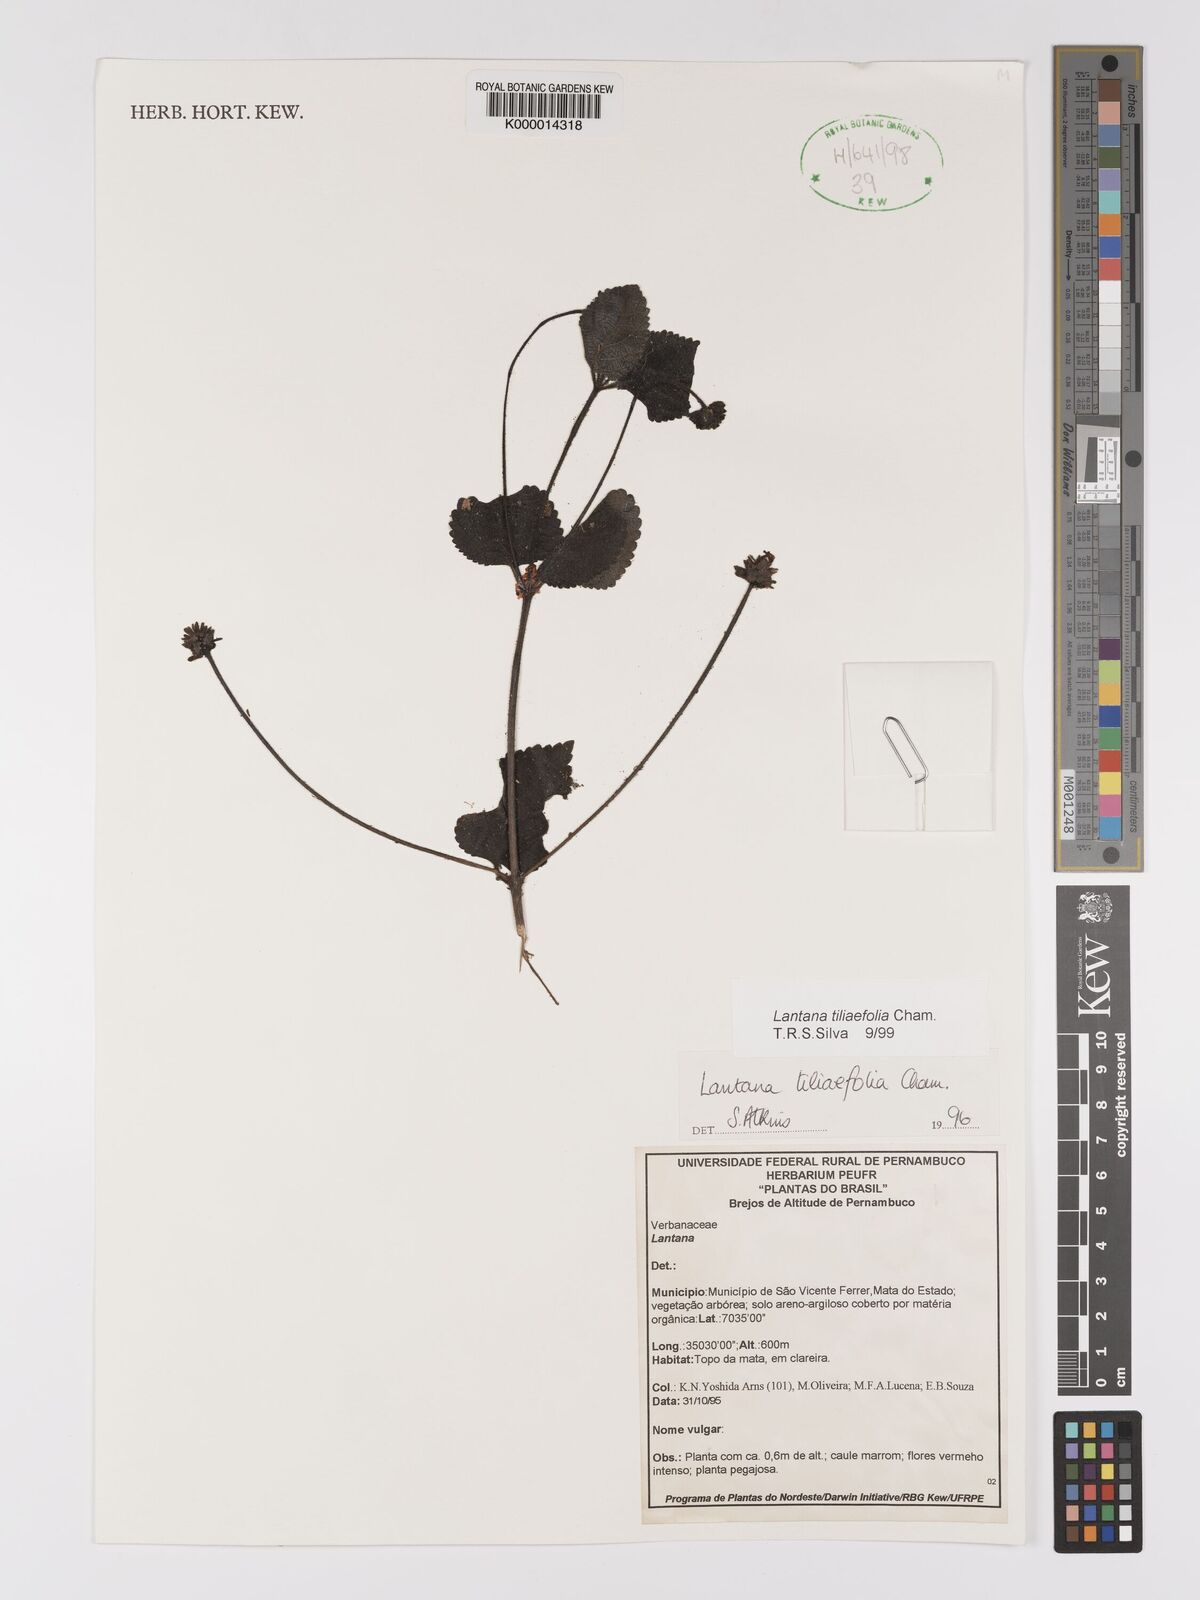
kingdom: Plantae
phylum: Tracheophyta
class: Magnoliopsida
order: Lamiales
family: Verbenaceae
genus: Lantana
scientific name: Lantana
